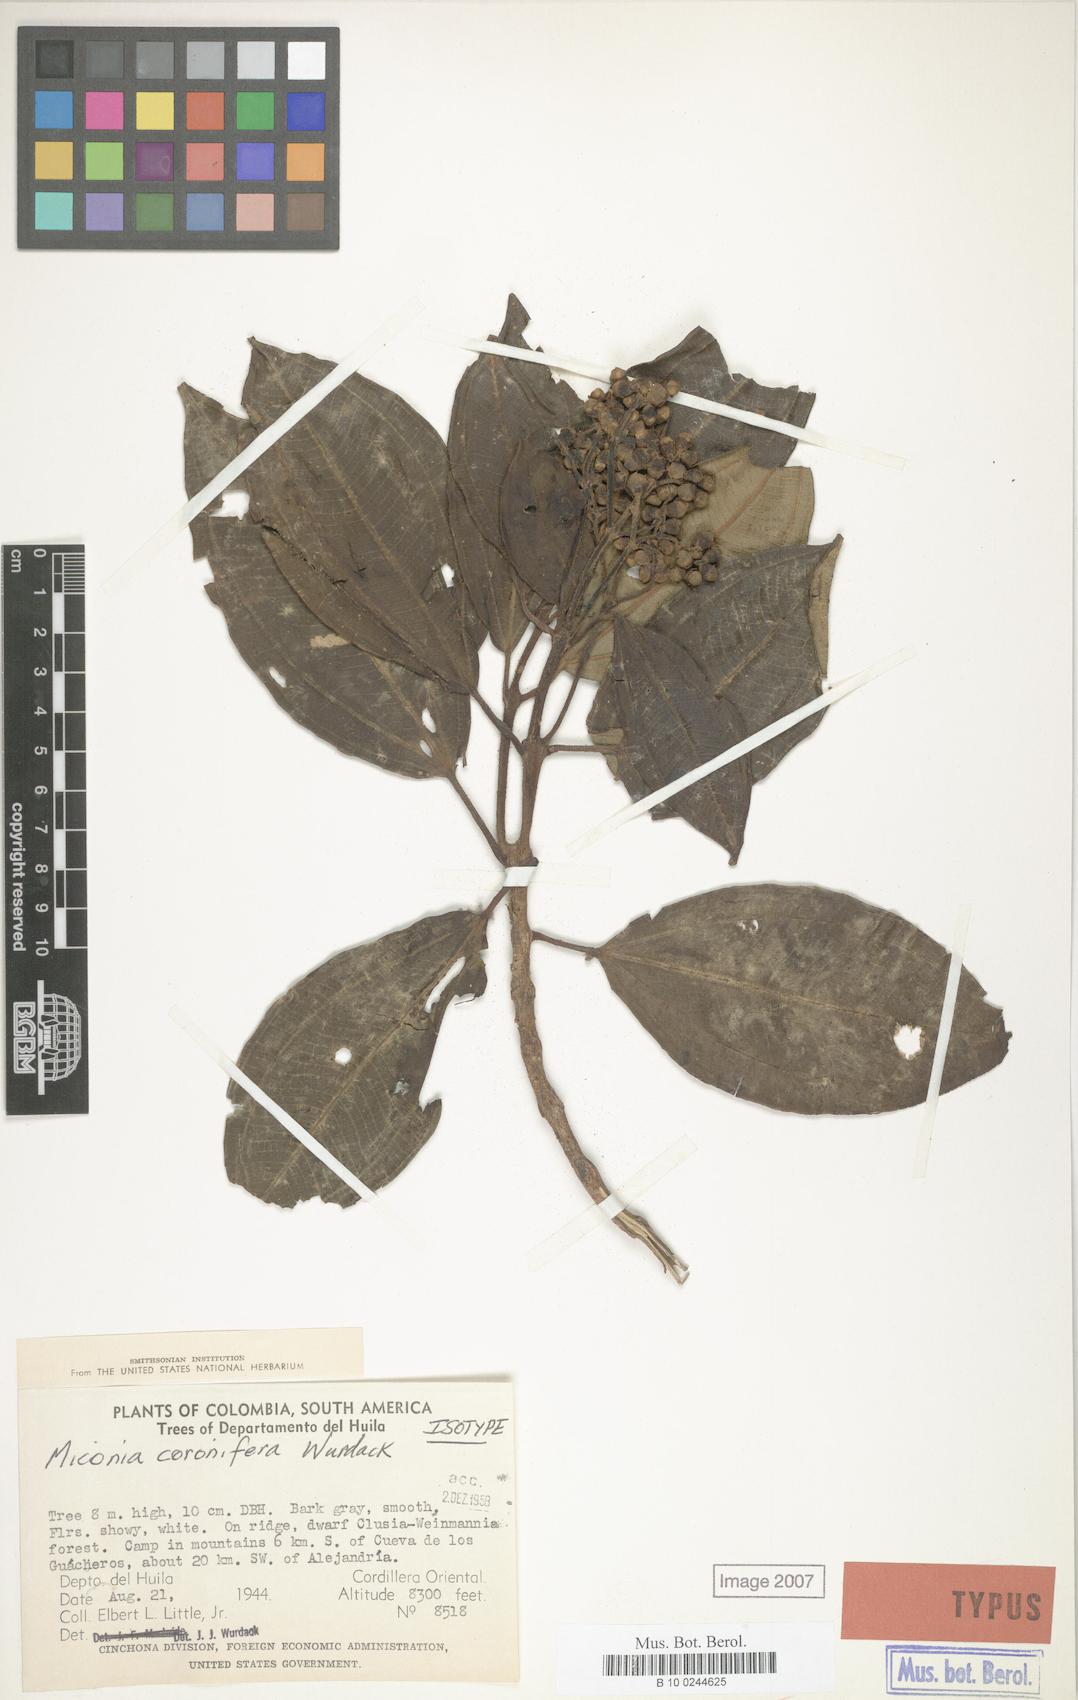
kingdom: Plantae
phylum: Tracheophyta
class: Magnoliopsida
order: Myrtales
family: Melastomataceae
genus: Miconia
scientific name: Miconia coronifera
